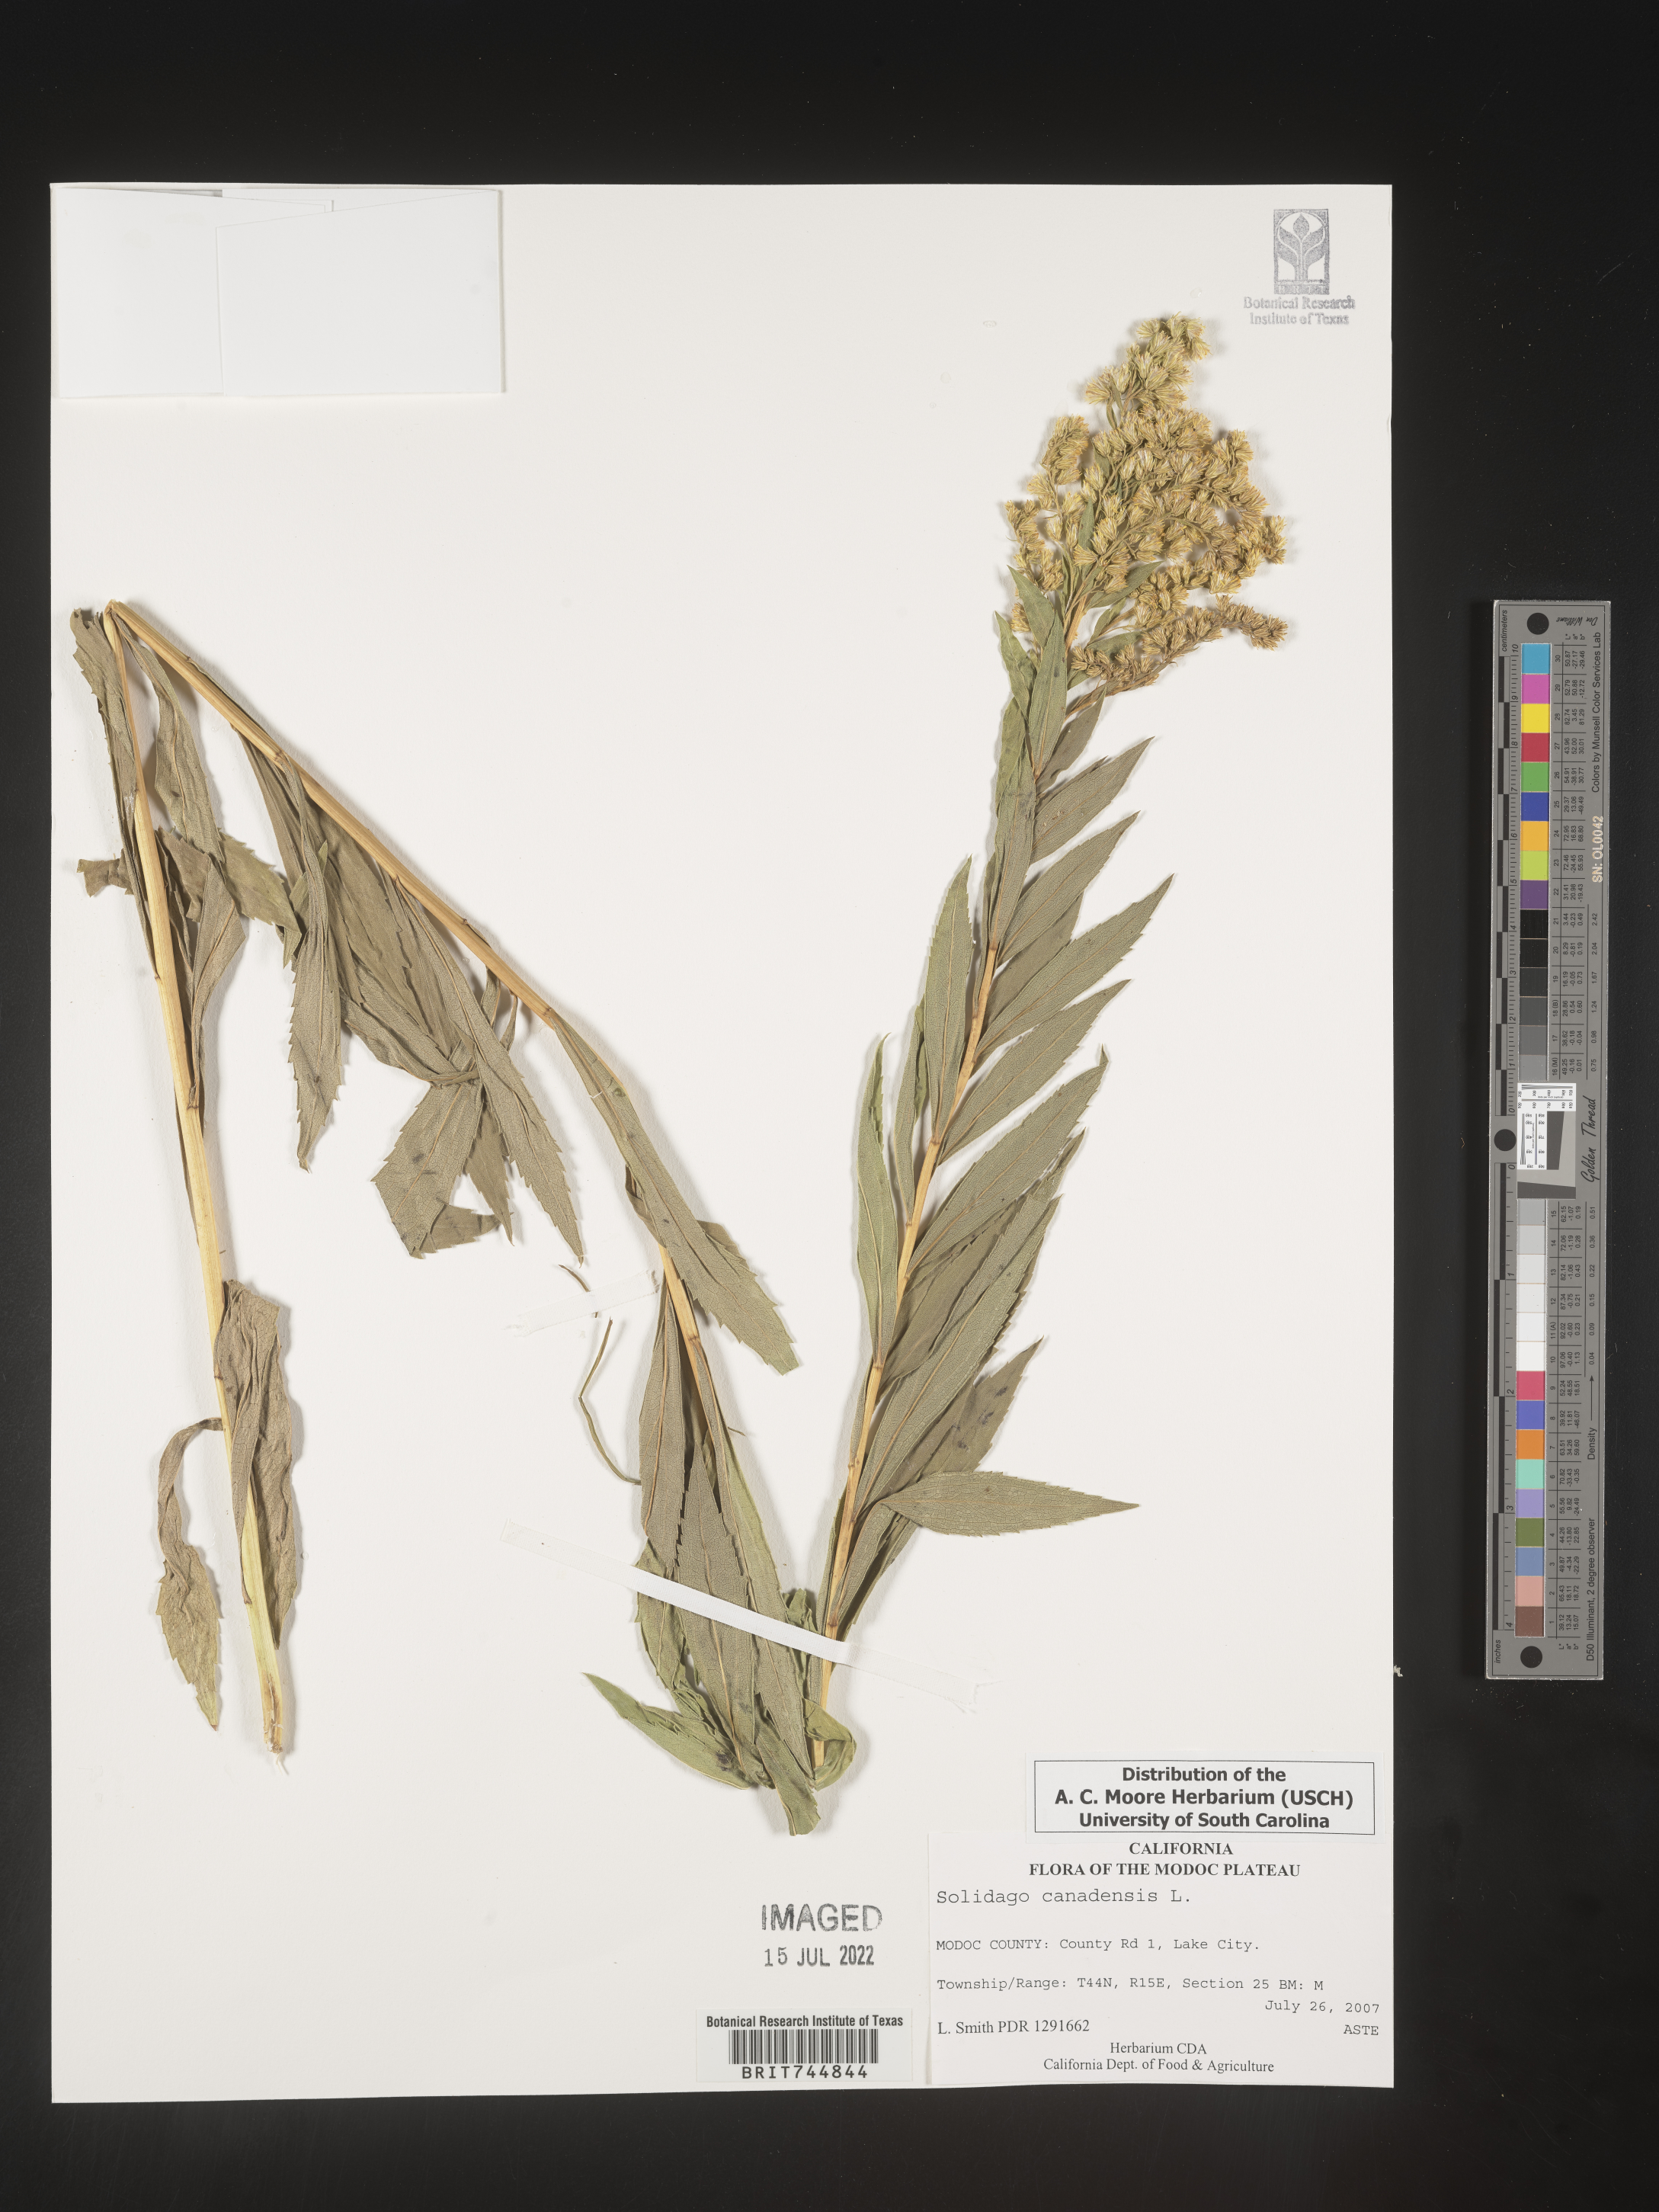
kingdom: Plantae
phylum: Tracheophyta
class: Magnoliopsida
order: Asterales
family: Asteraceae
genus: Solidago
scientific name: Solidago canadensis
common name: Canada goldenrod
